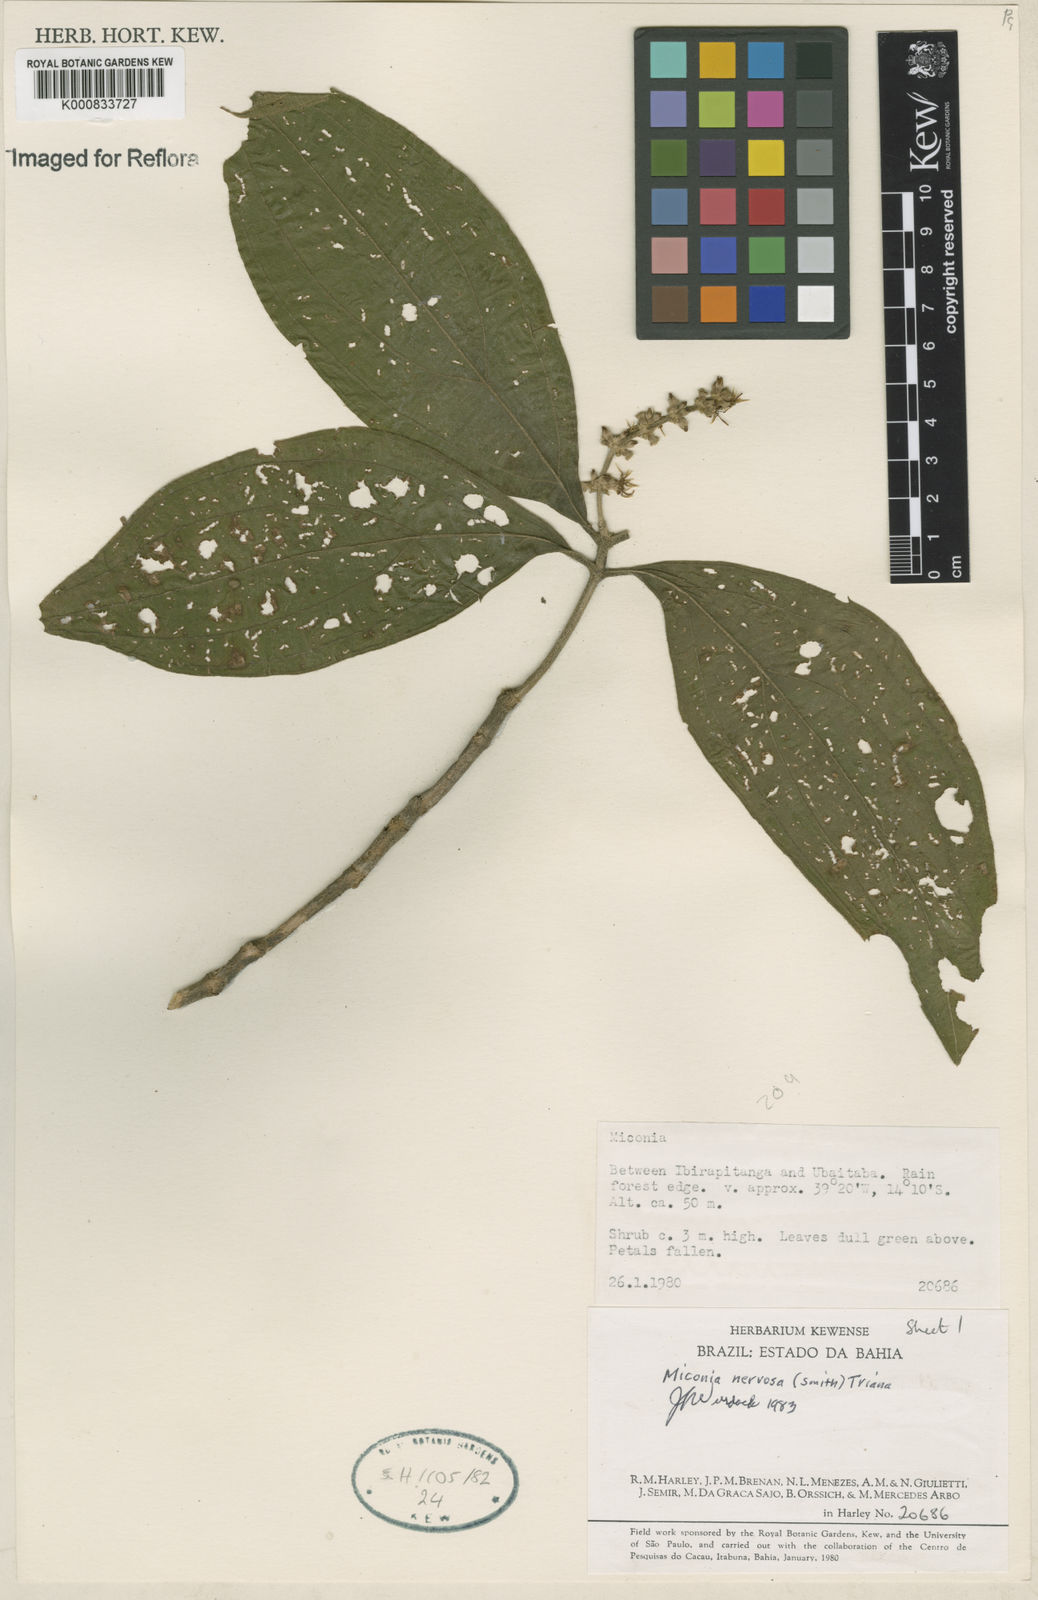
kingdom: Plantae
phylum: Tracheophyta
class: Magnoliopsida
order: Myrtales
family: Melastomataceae
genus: Miconia
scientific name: Miconia nervosa
